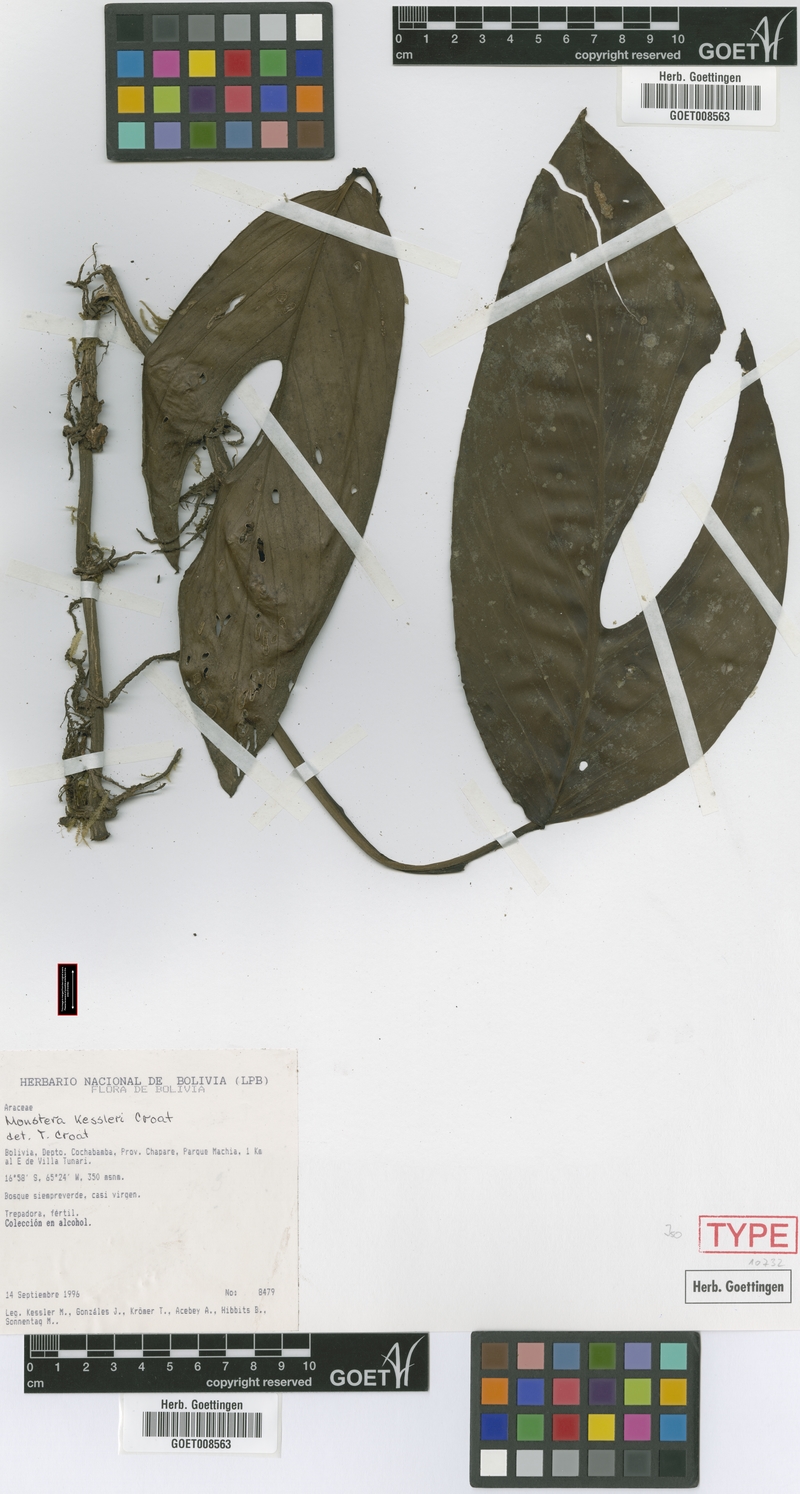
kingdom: Plantae
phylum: Tracheophyta
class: Liliopsida
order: Alismatales
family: Araceae
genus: Monstera
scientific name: Monstera kessleri
